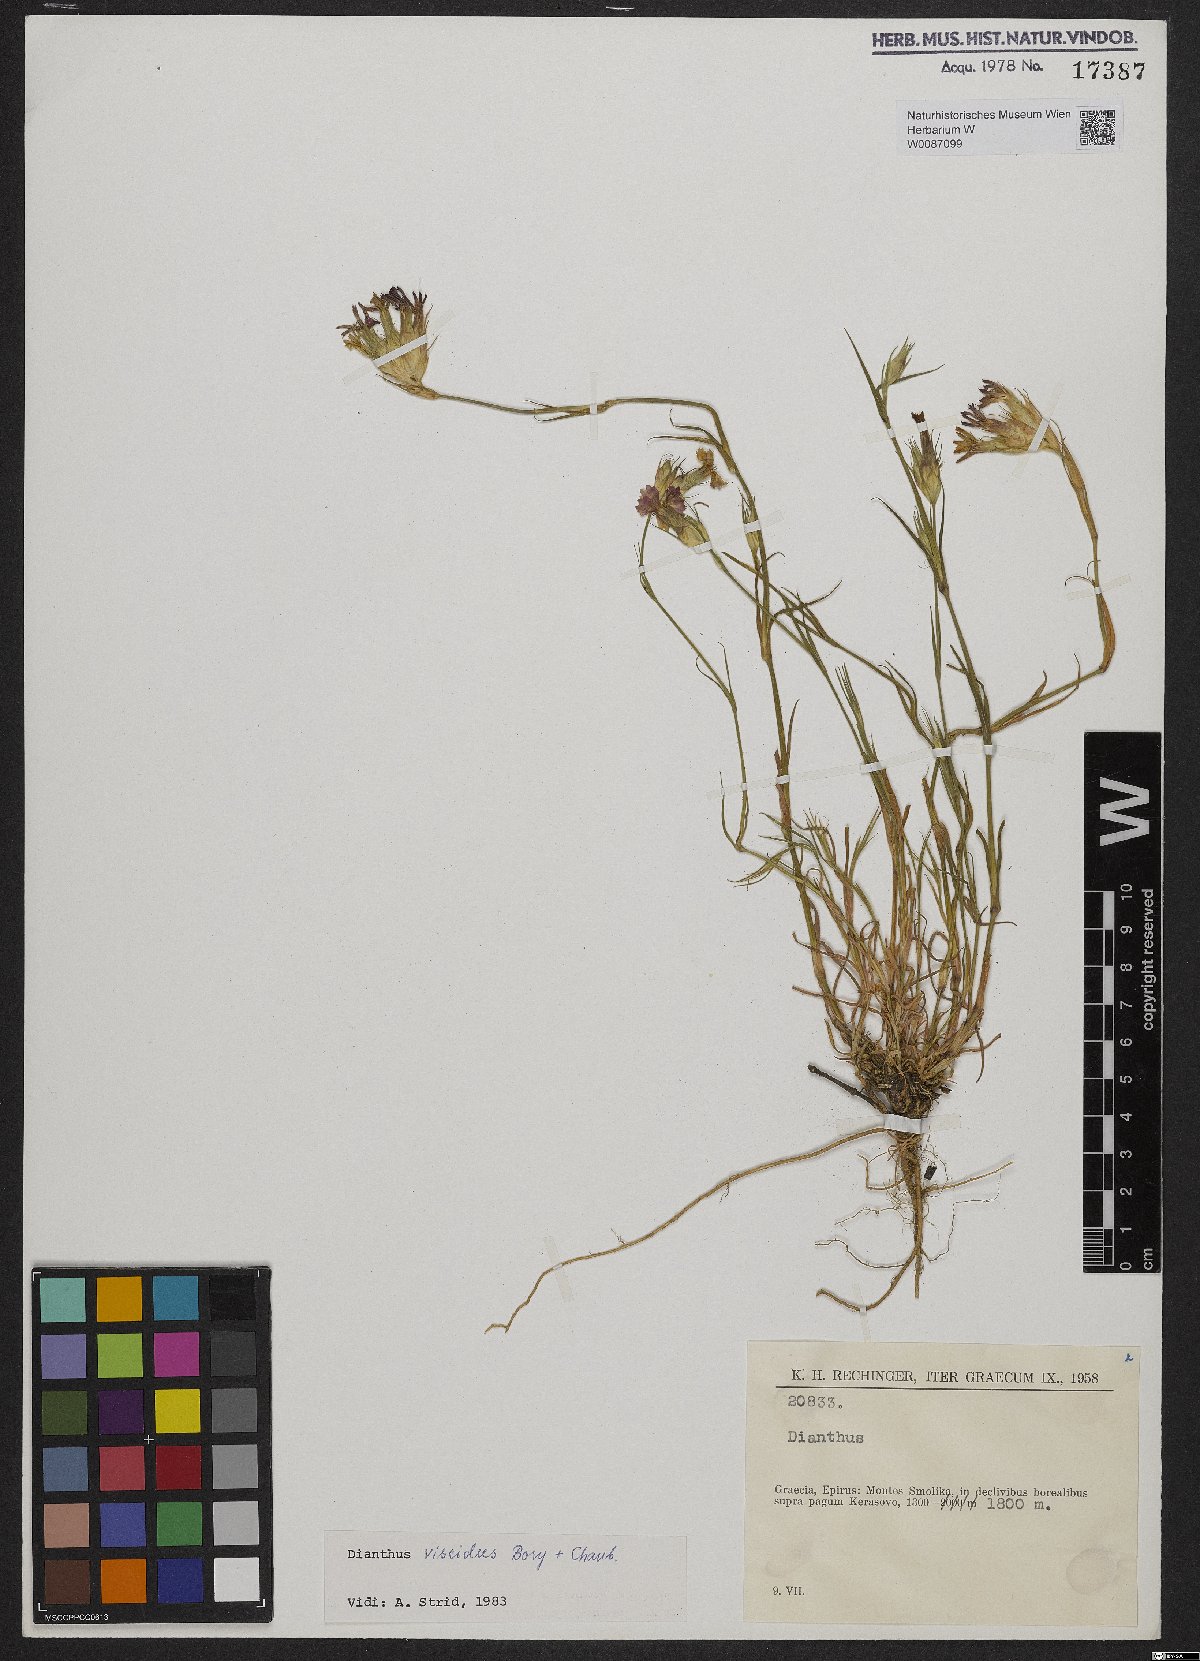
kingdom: Plantae
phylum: Tracheophyta
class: Magnoliopsida
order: Caryophyllales
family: Caryophyllaceae
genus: Dianthus
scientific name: Dianthus viscidus
